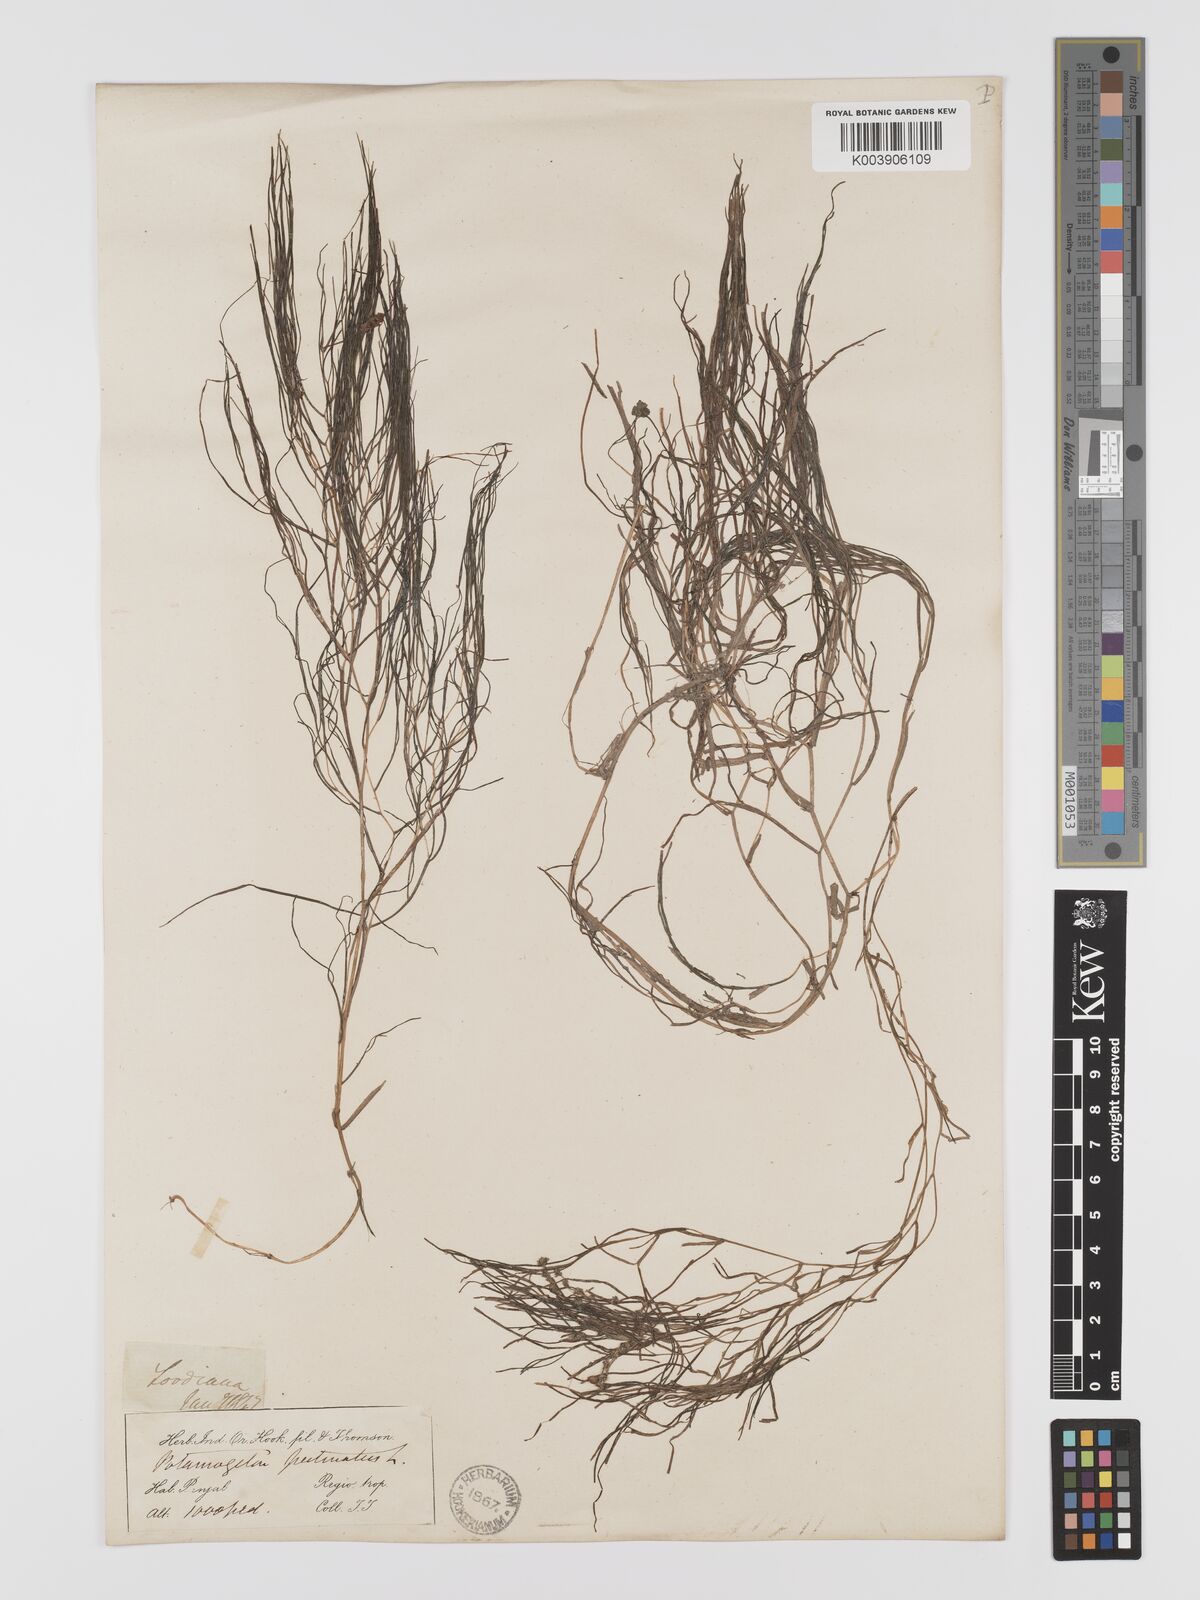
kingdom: Plantae
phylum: Tracheophyta
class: Liliopsida
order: Alismatales
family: Potamogetonaceae
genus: Stuckenia
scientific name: Stuckenia pectinata
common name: Sago pondweed
